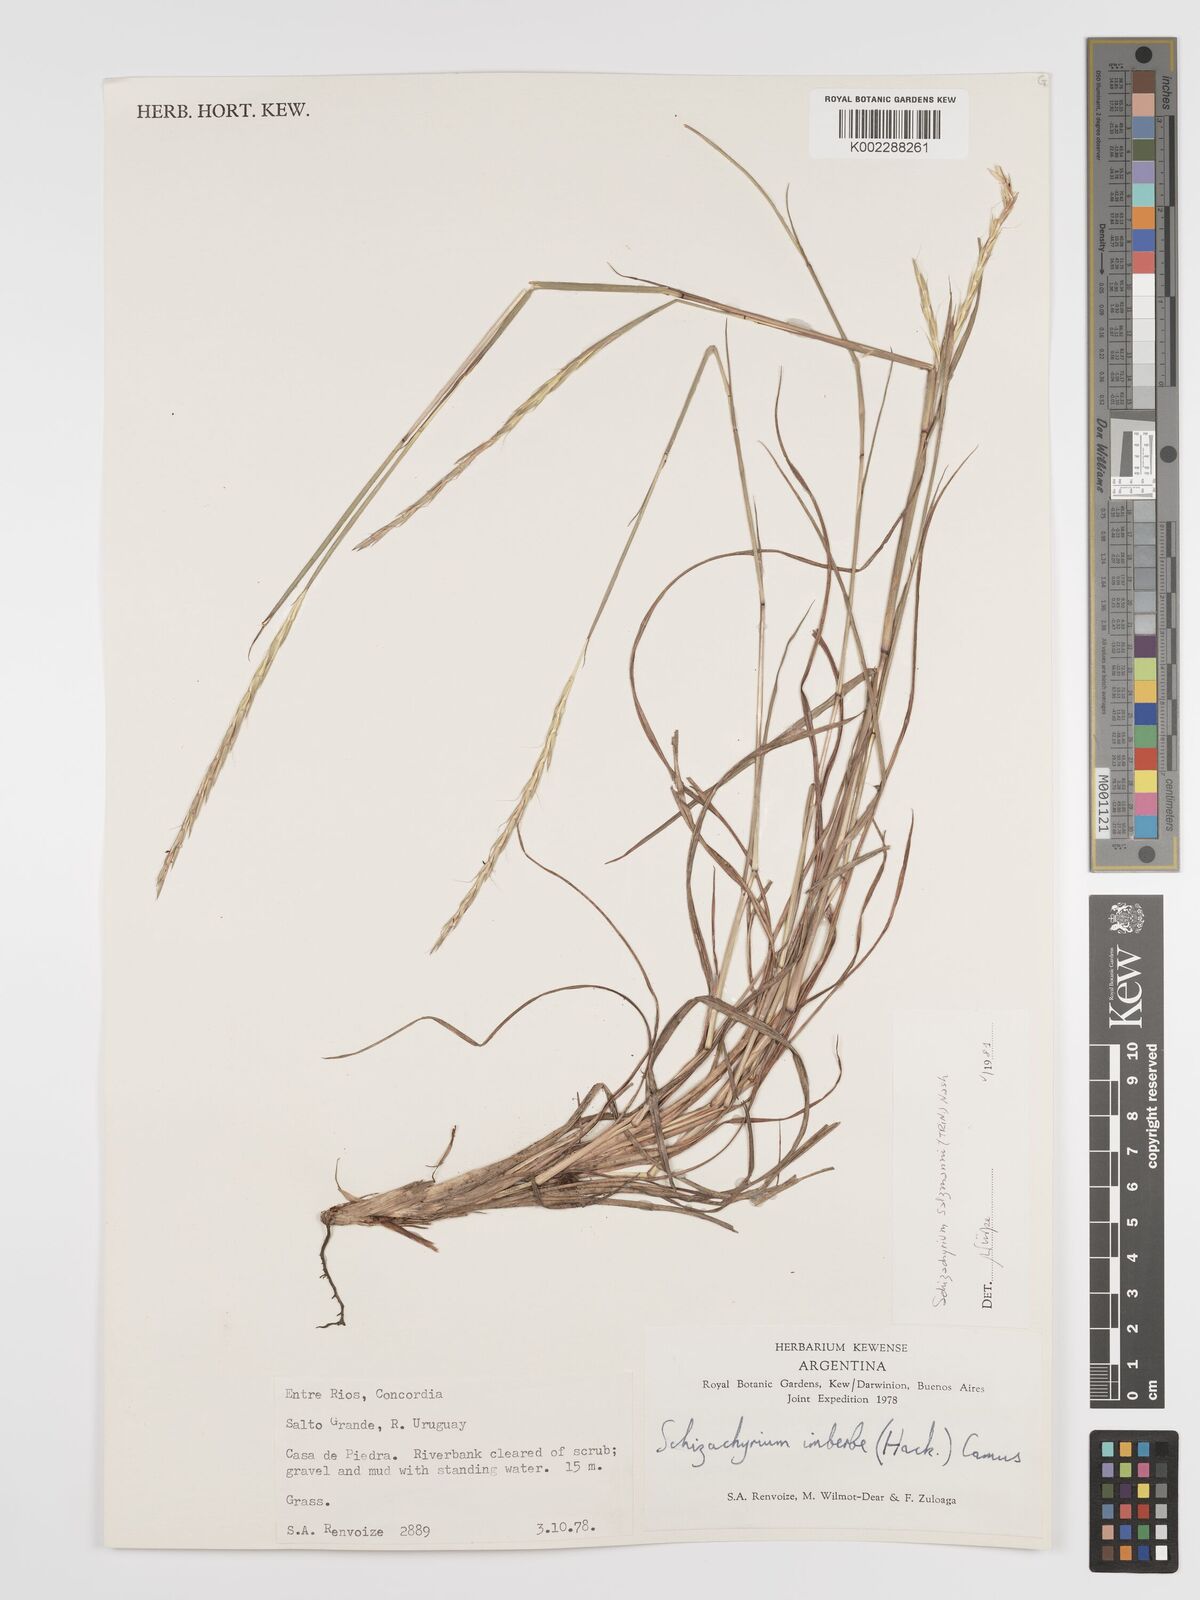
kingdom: Plantae
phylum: Tracheophyta
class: Liliopsida
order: Poales
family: Poaceae
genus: Andropogon
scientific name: Andropogon salzmannii
